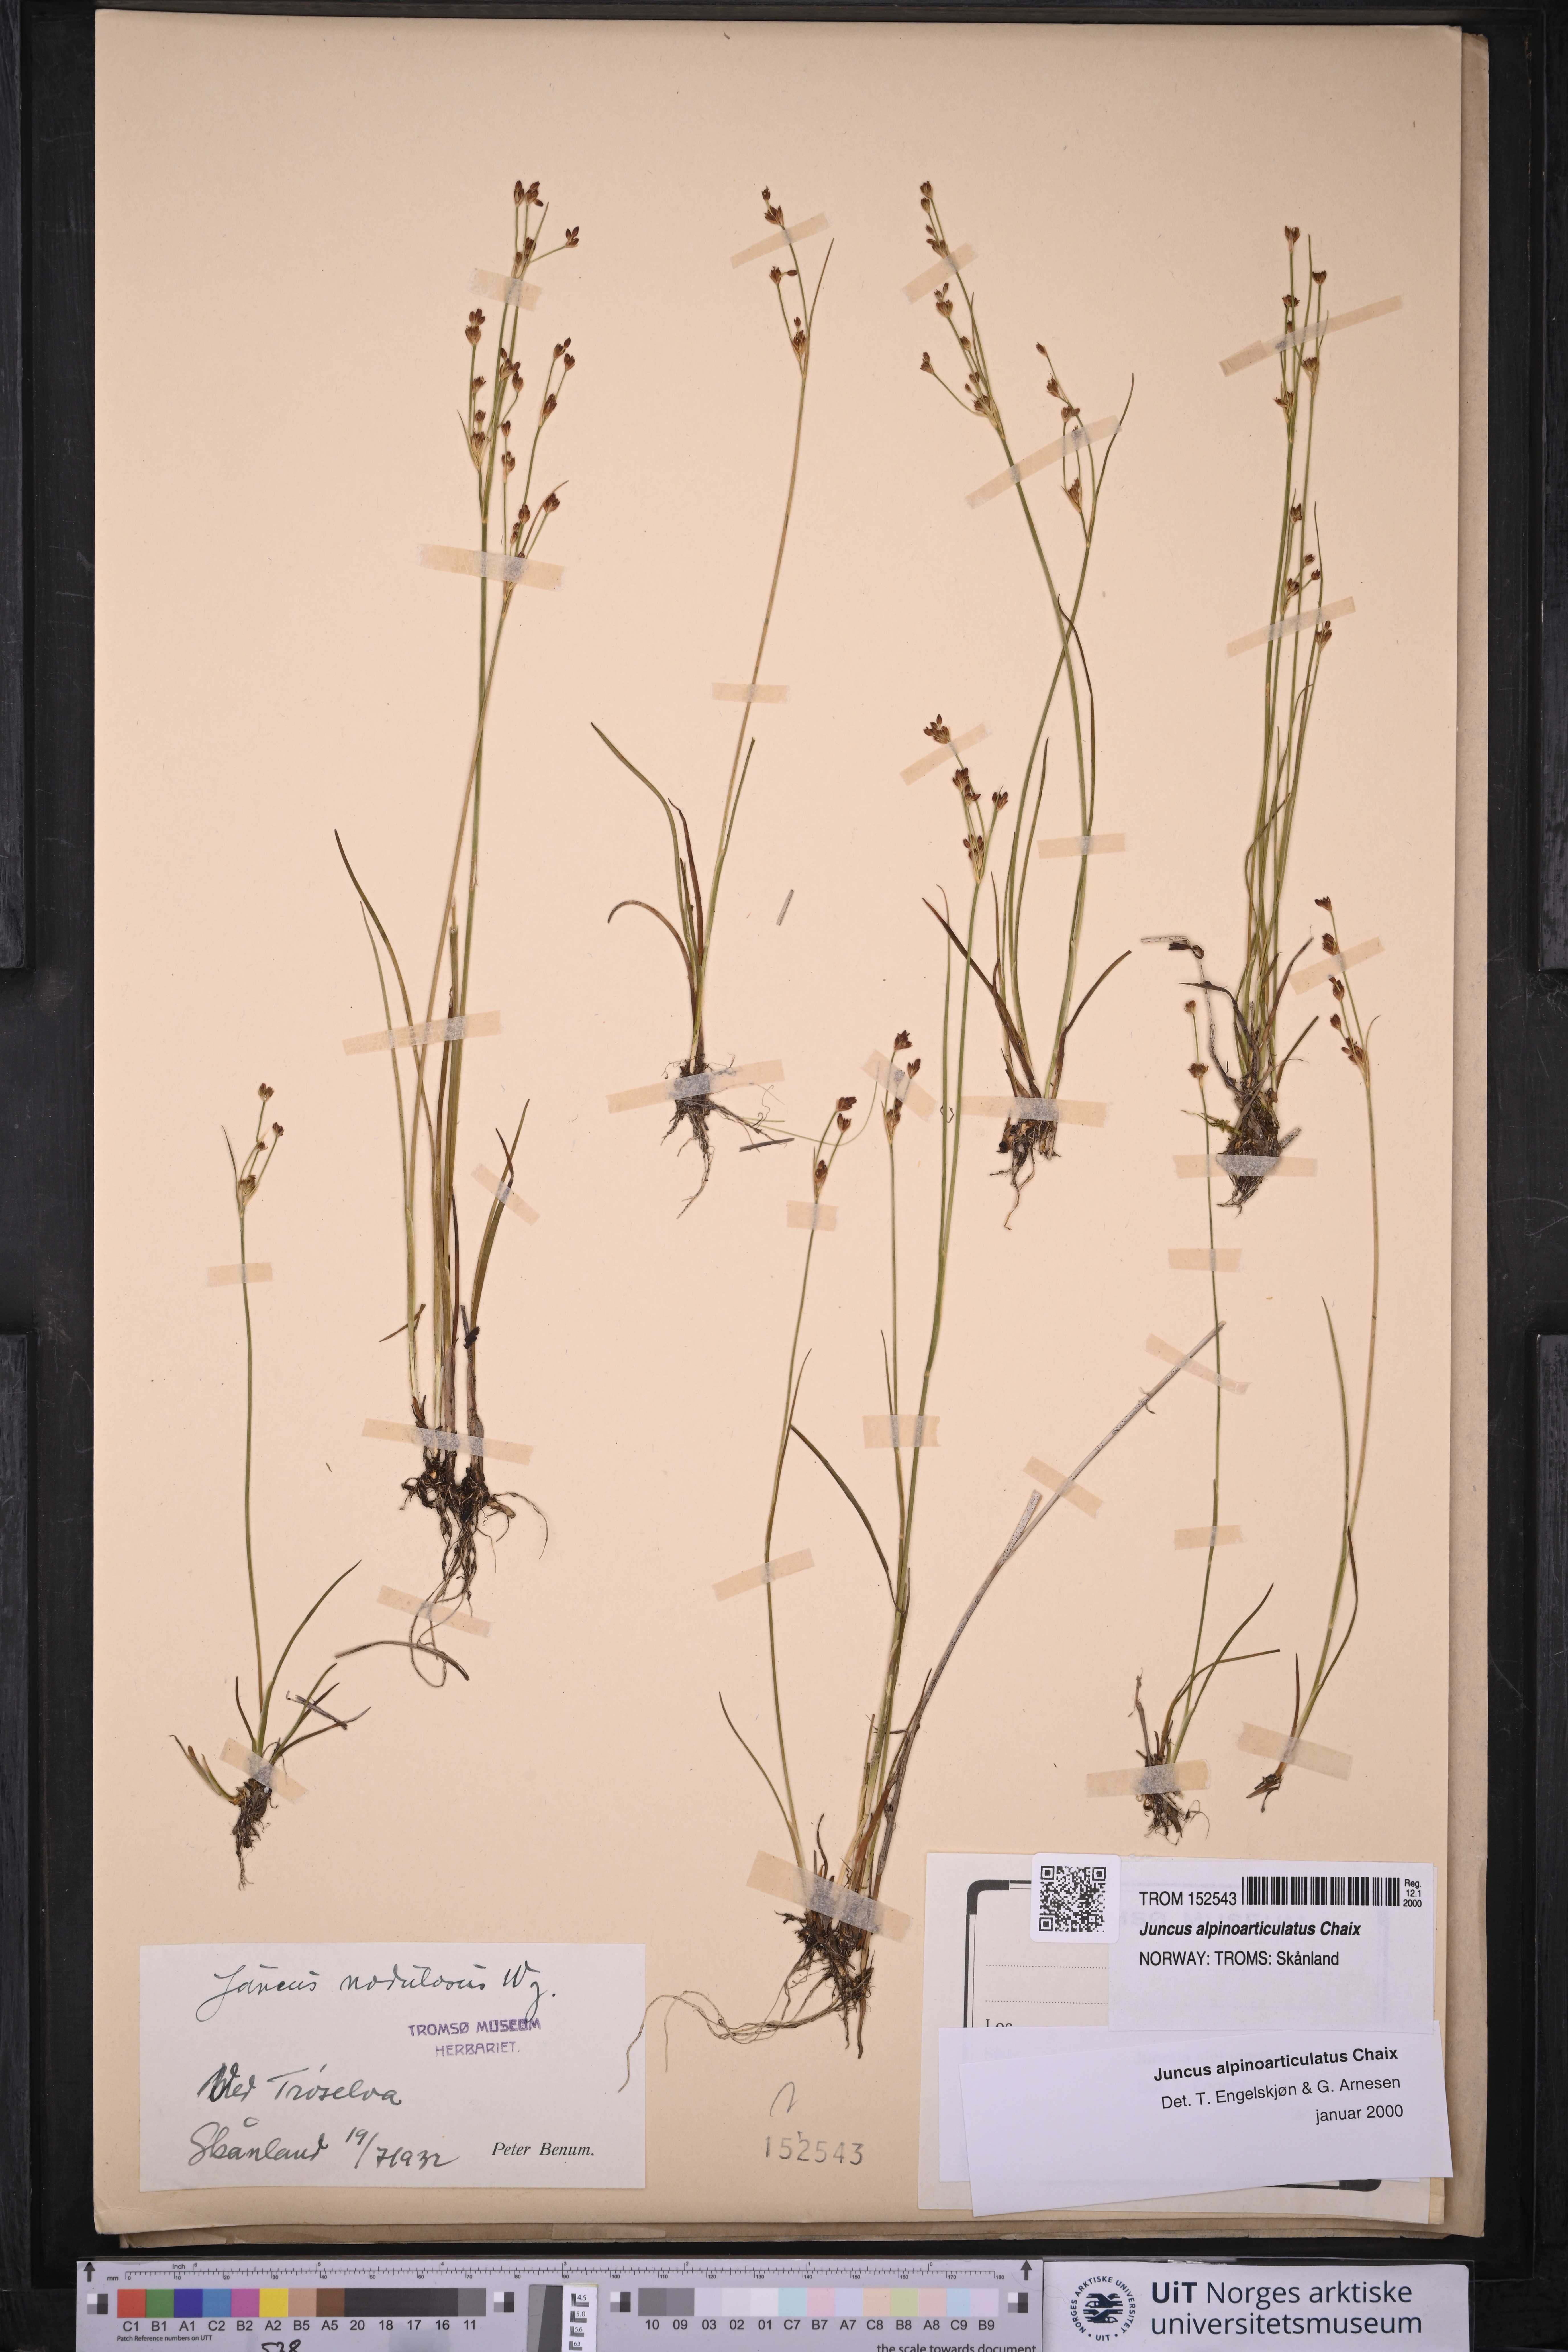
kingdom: Plantae
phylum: Tracheophyta
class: Liliopsida
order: Poales
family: Juncaceae
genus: Juncus
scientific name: Juncus alpinoarticulatus
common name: Alpine rush
